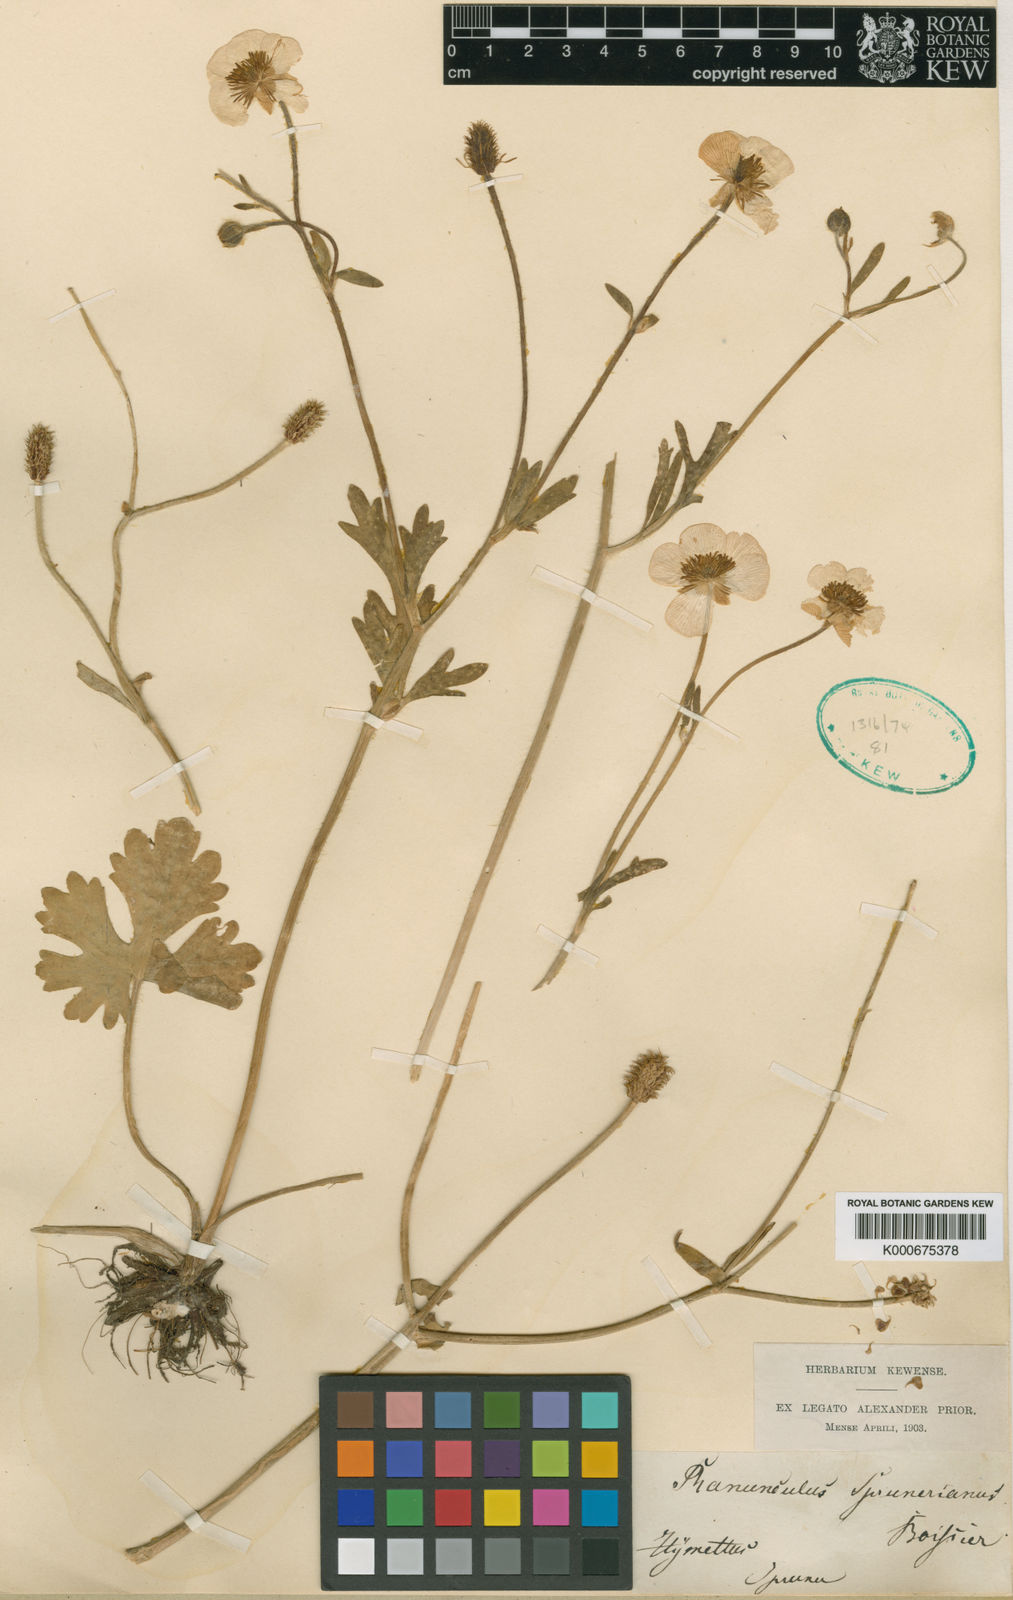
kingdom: Plantae
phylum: Tracheophyta
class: Magnoliopsida
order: Ranunculales
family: Ranunculaceae
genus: Ranunculus
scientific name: Ranunculus sprunerianus
